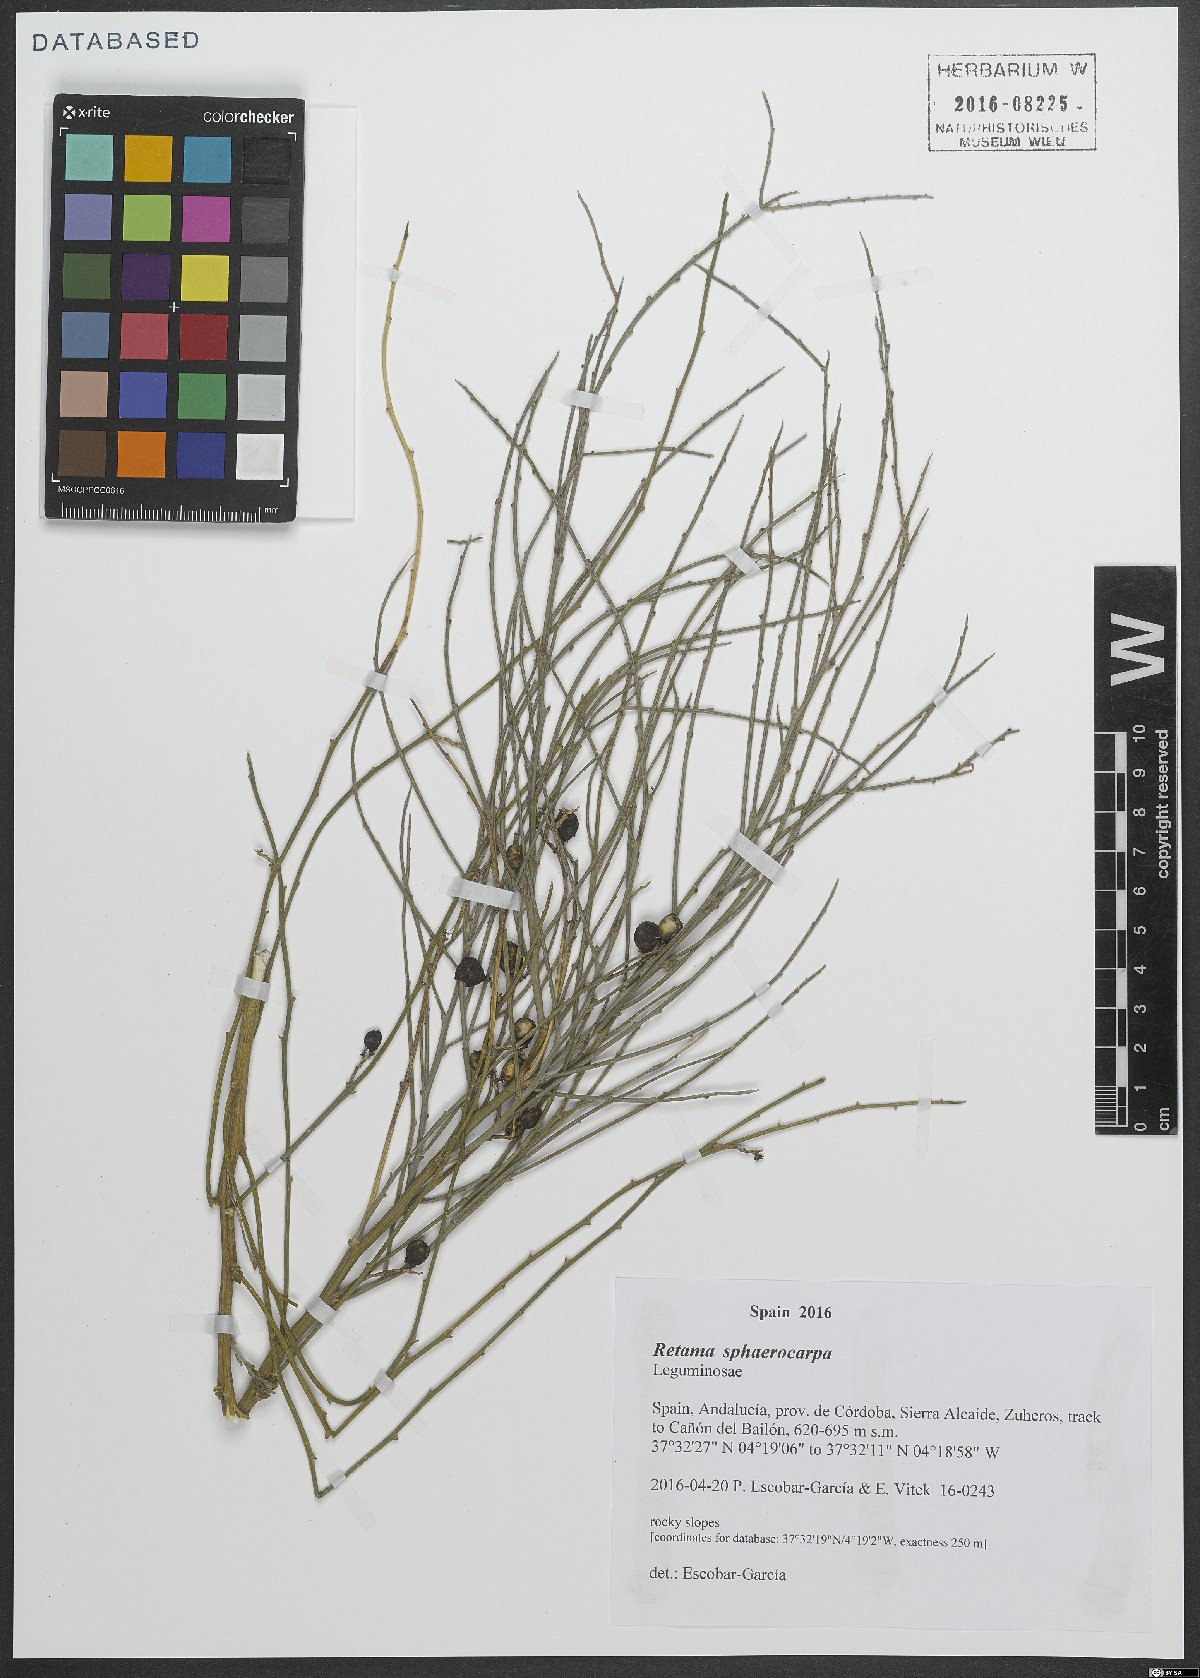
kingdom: Plantae
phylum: Tracheophyta
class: Magnoliopsida
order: Fabales
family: Fabaceae
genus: Retama
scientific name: Retama sphaerocarpa
